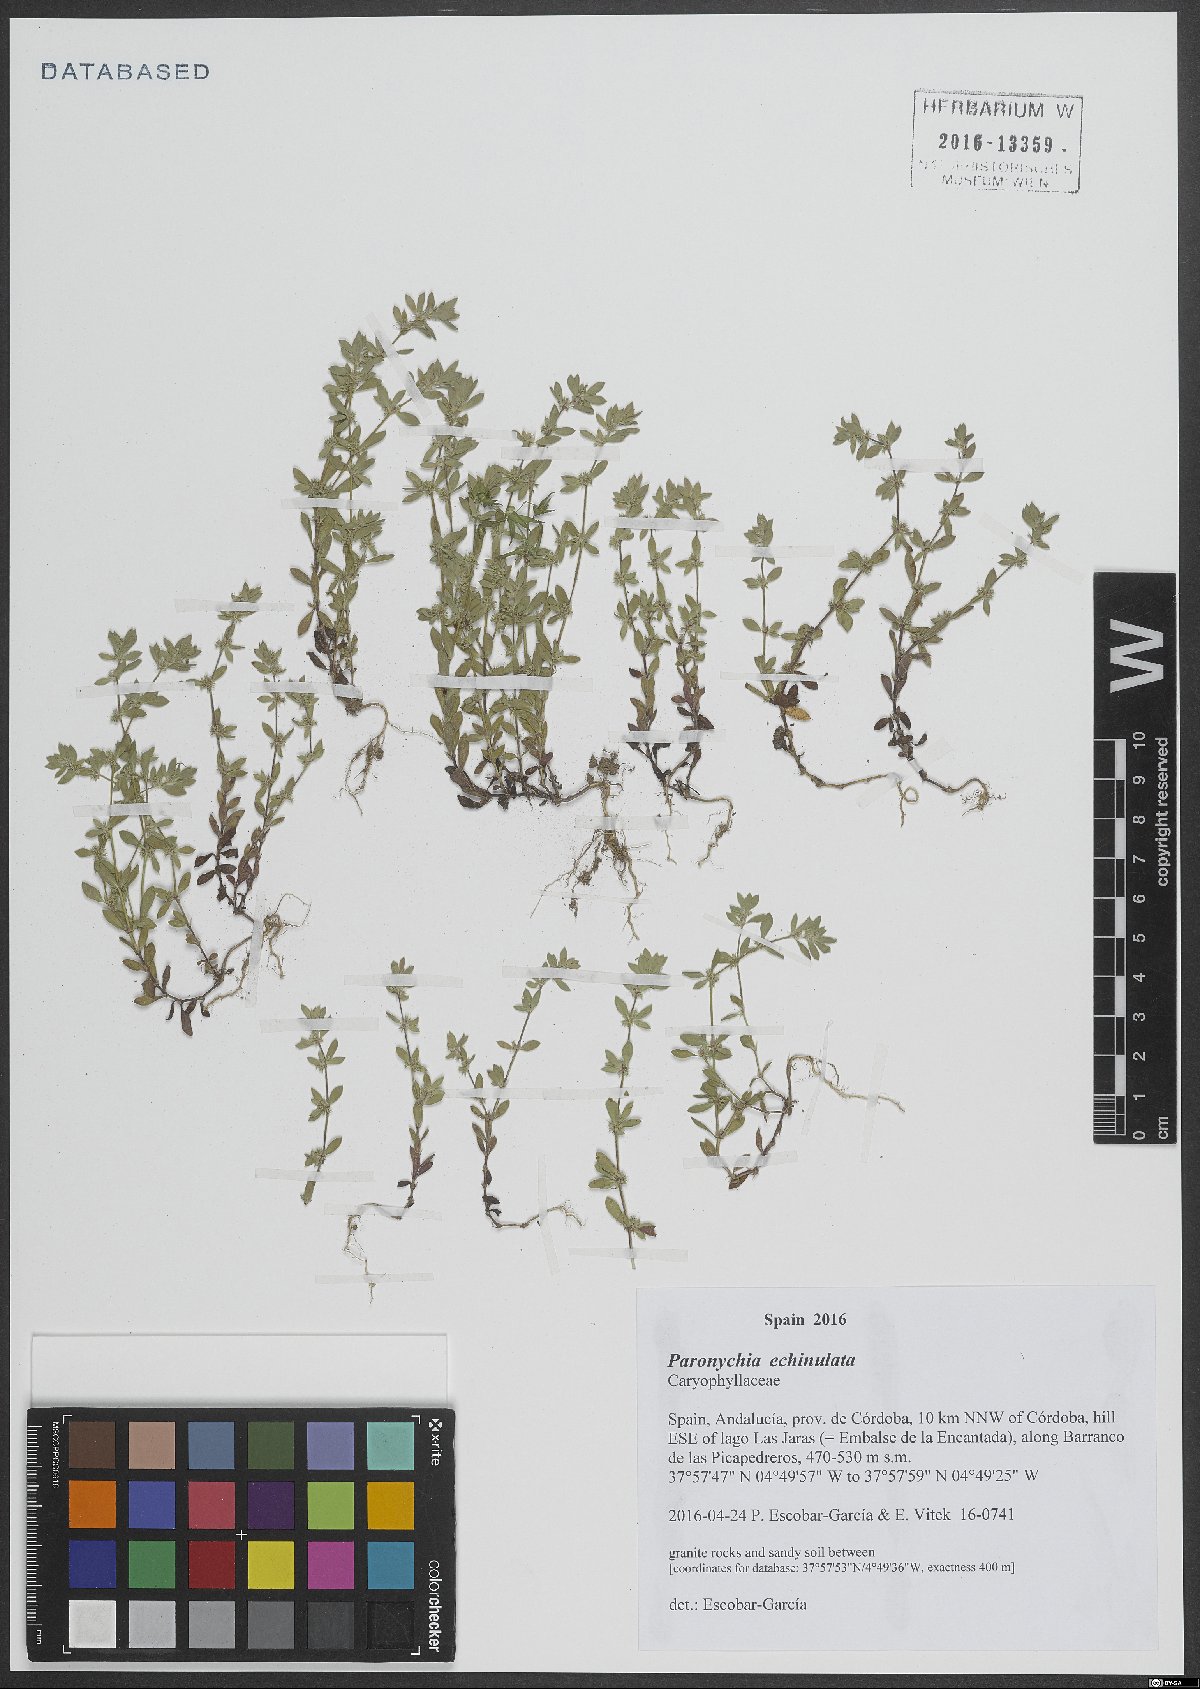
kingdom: Plantae
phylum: Tracheophyta
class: Magnoliopsida
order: Caryophyllales
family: Caryophyllaceae
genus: Paronychia
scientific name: Paronychia echinulata
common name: Eurasian nailwort
